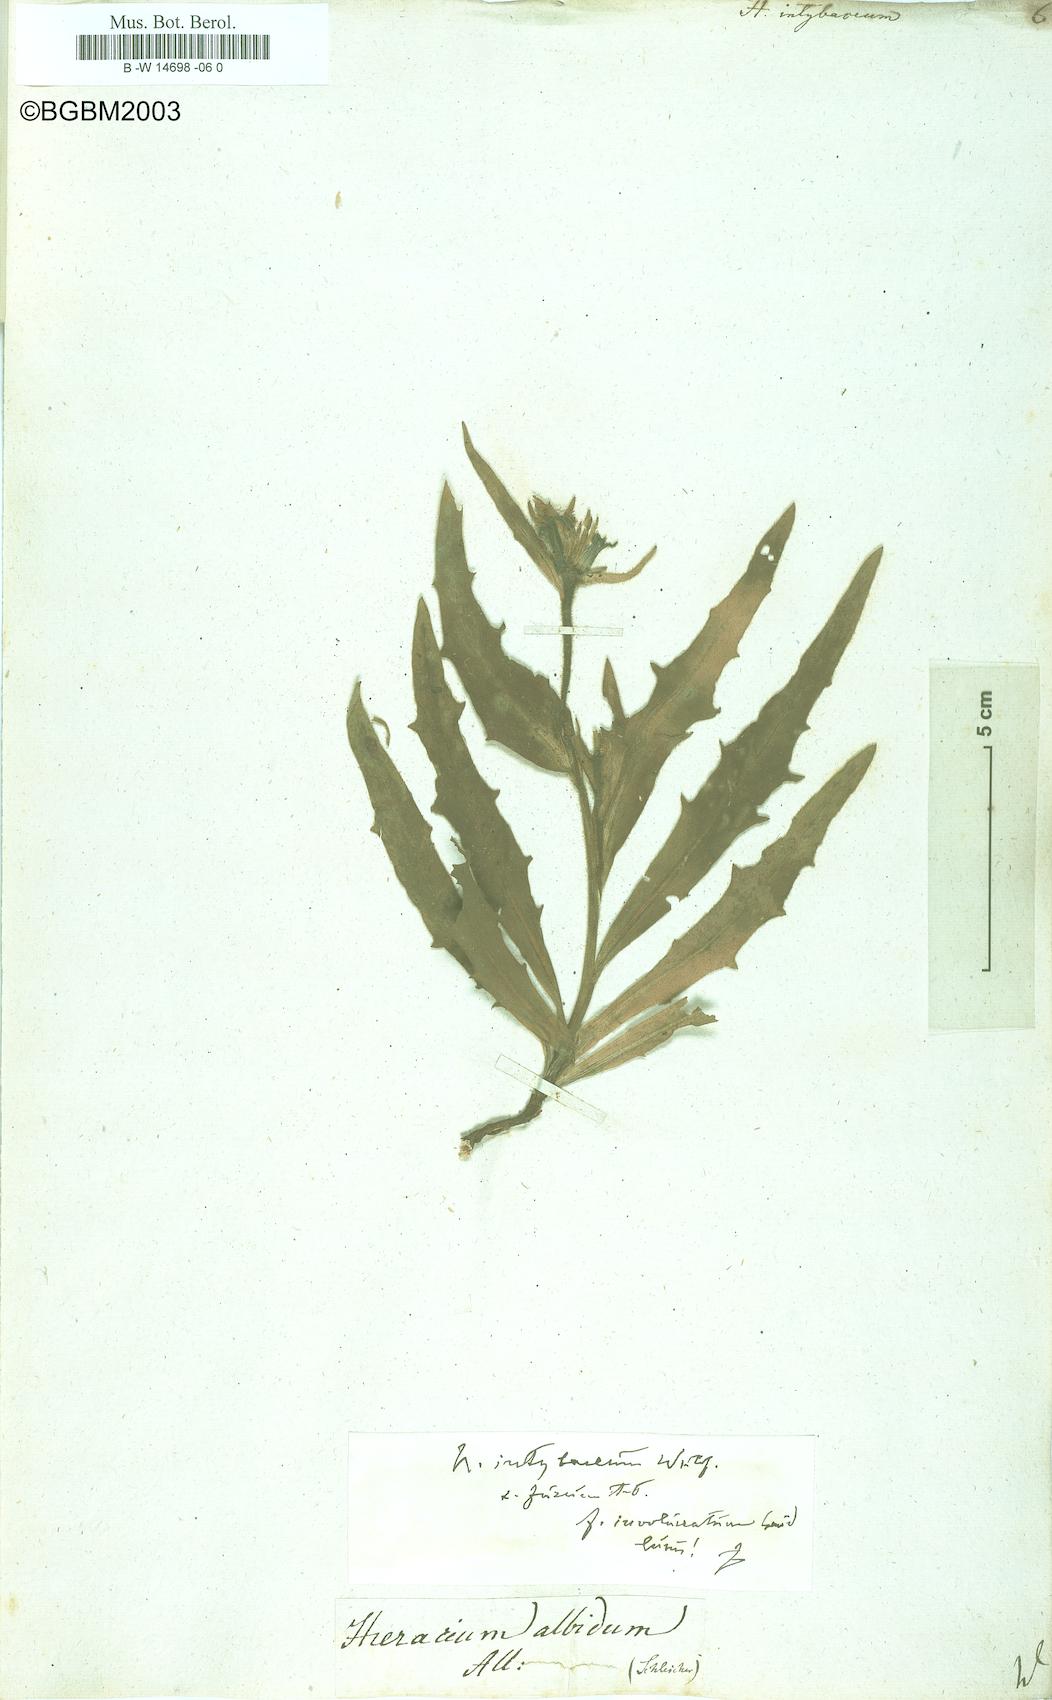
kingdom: Plantae
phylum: Tracheophyta
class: Magnoliopsida
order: Asterales
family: Asteraceae
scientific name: Asteraceae
